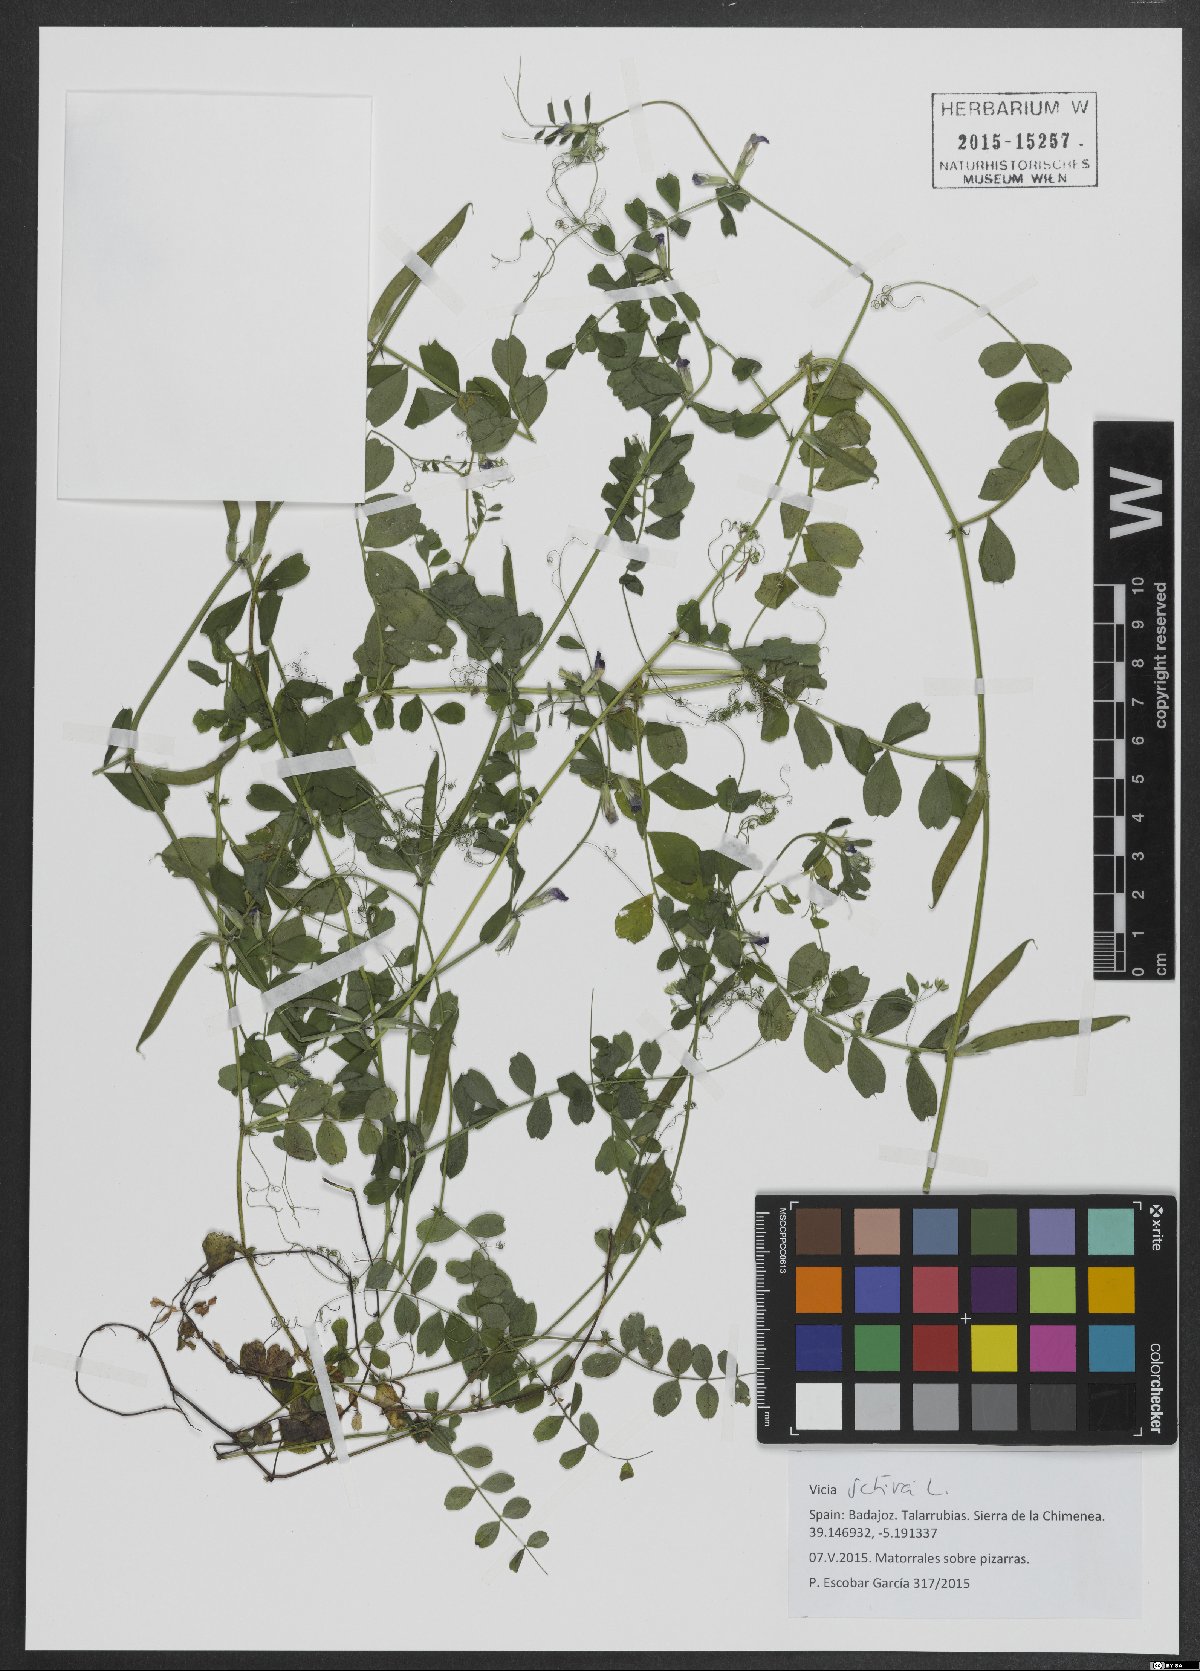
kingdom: Plantae
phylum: Tracheophyta
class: Magnoliopsida
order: Fabales
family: Fabaceae
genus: Vicia
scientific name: Vicia sativa
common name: Garden vetch
